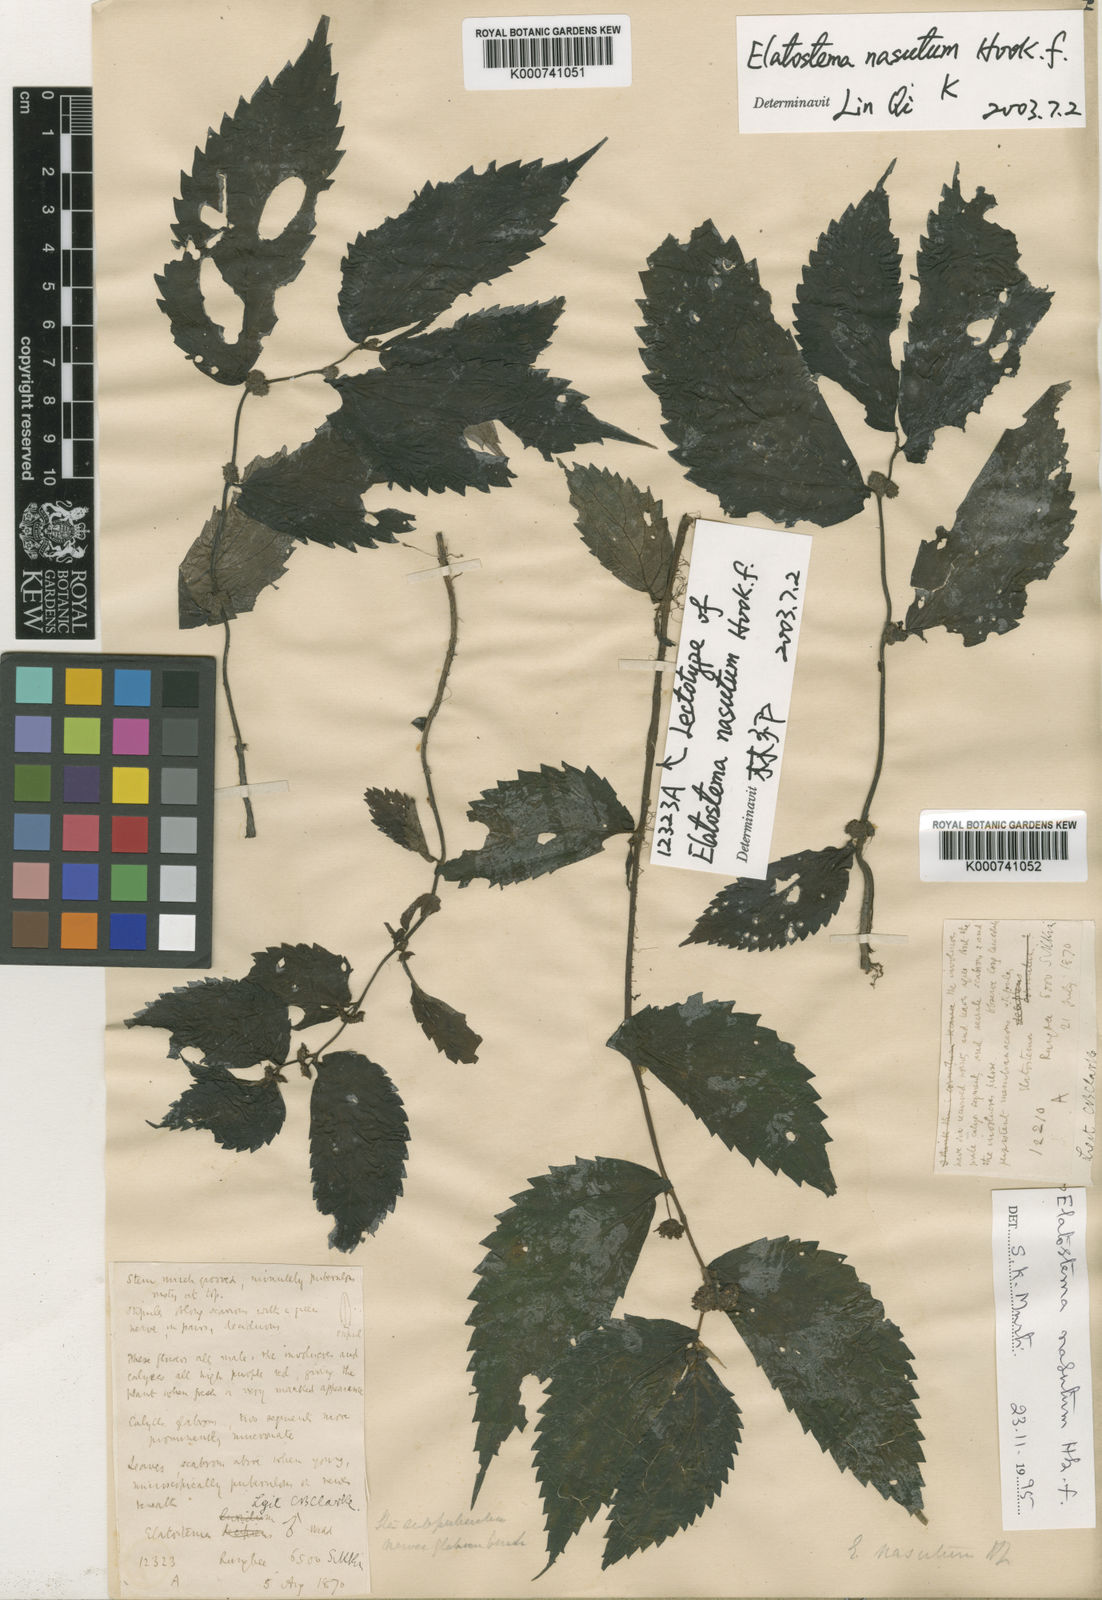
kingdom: Plantae
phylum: Tracheophyta
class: Magnoliopsida
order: Rosales
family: Urticaceae
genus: Elatostema
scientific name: Elatostema nasutum
